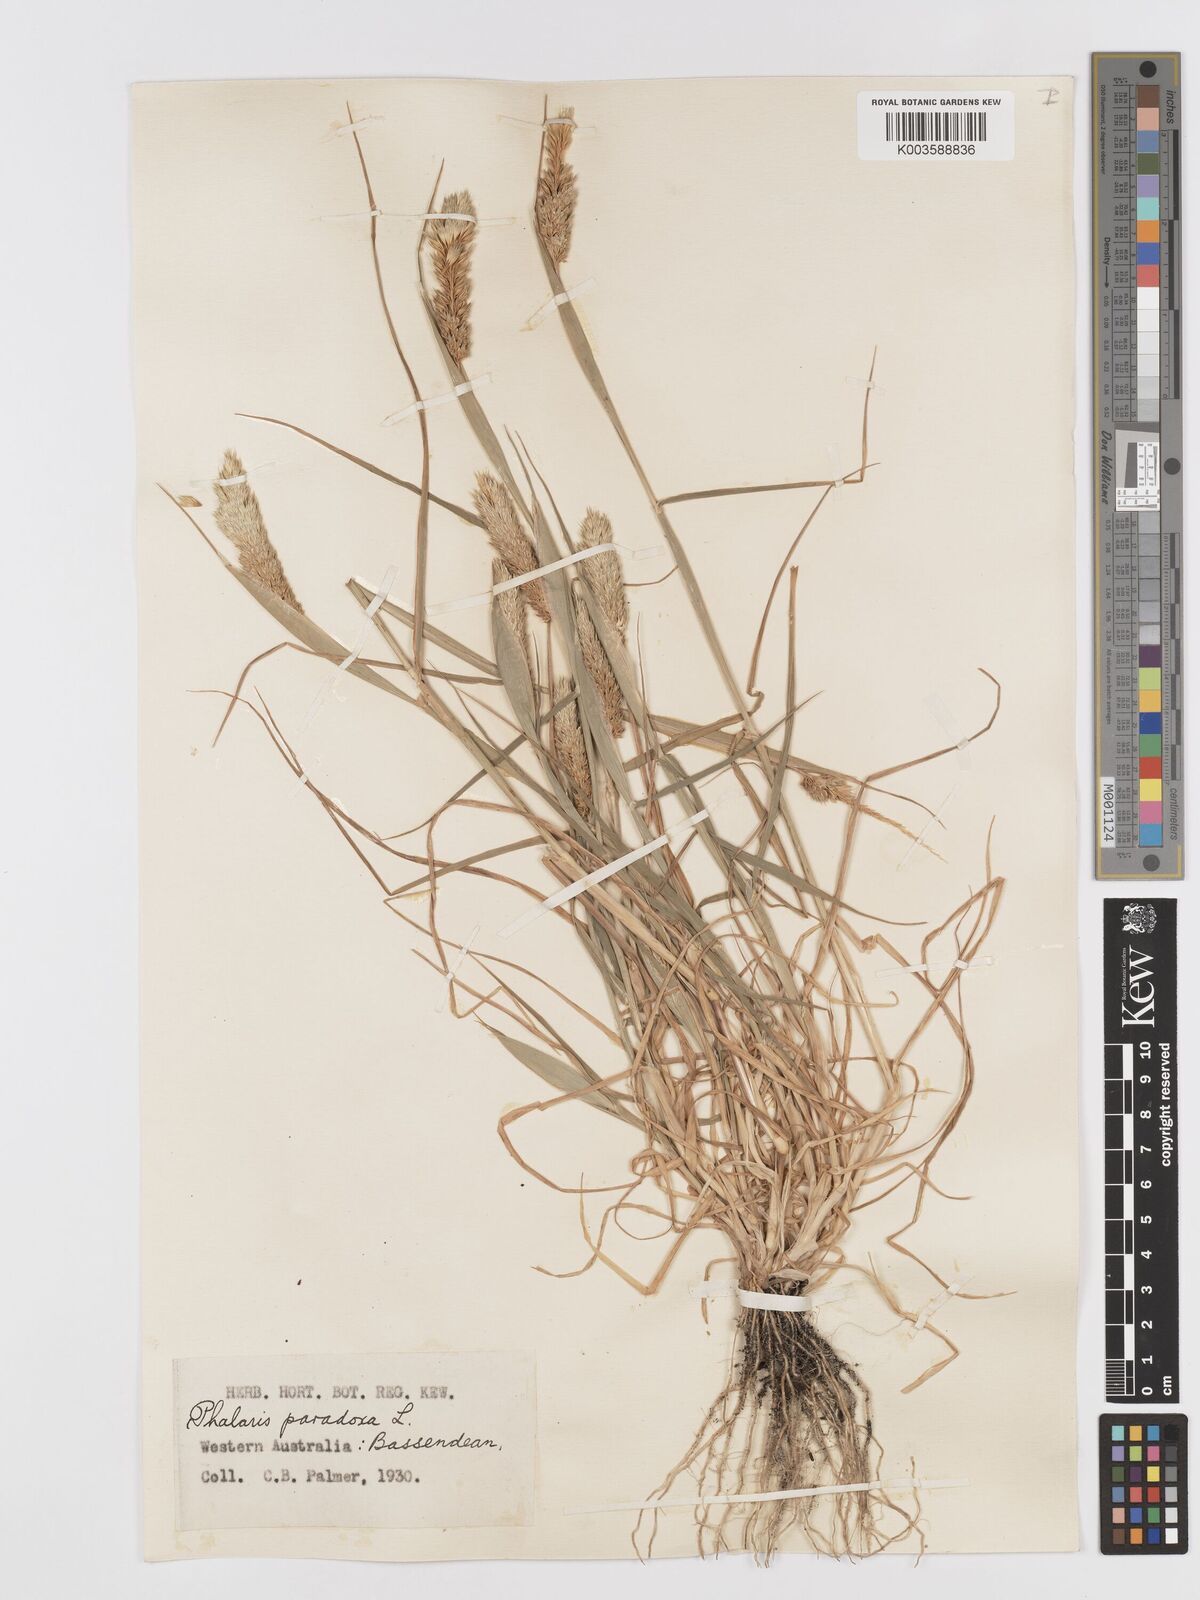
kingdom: Plantae
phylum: Tracheophyta
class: Liliopsida
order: Poales
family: Poaceae
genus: Phalaris
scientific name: Phalaris paradoxa
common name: Awned canary-grass
